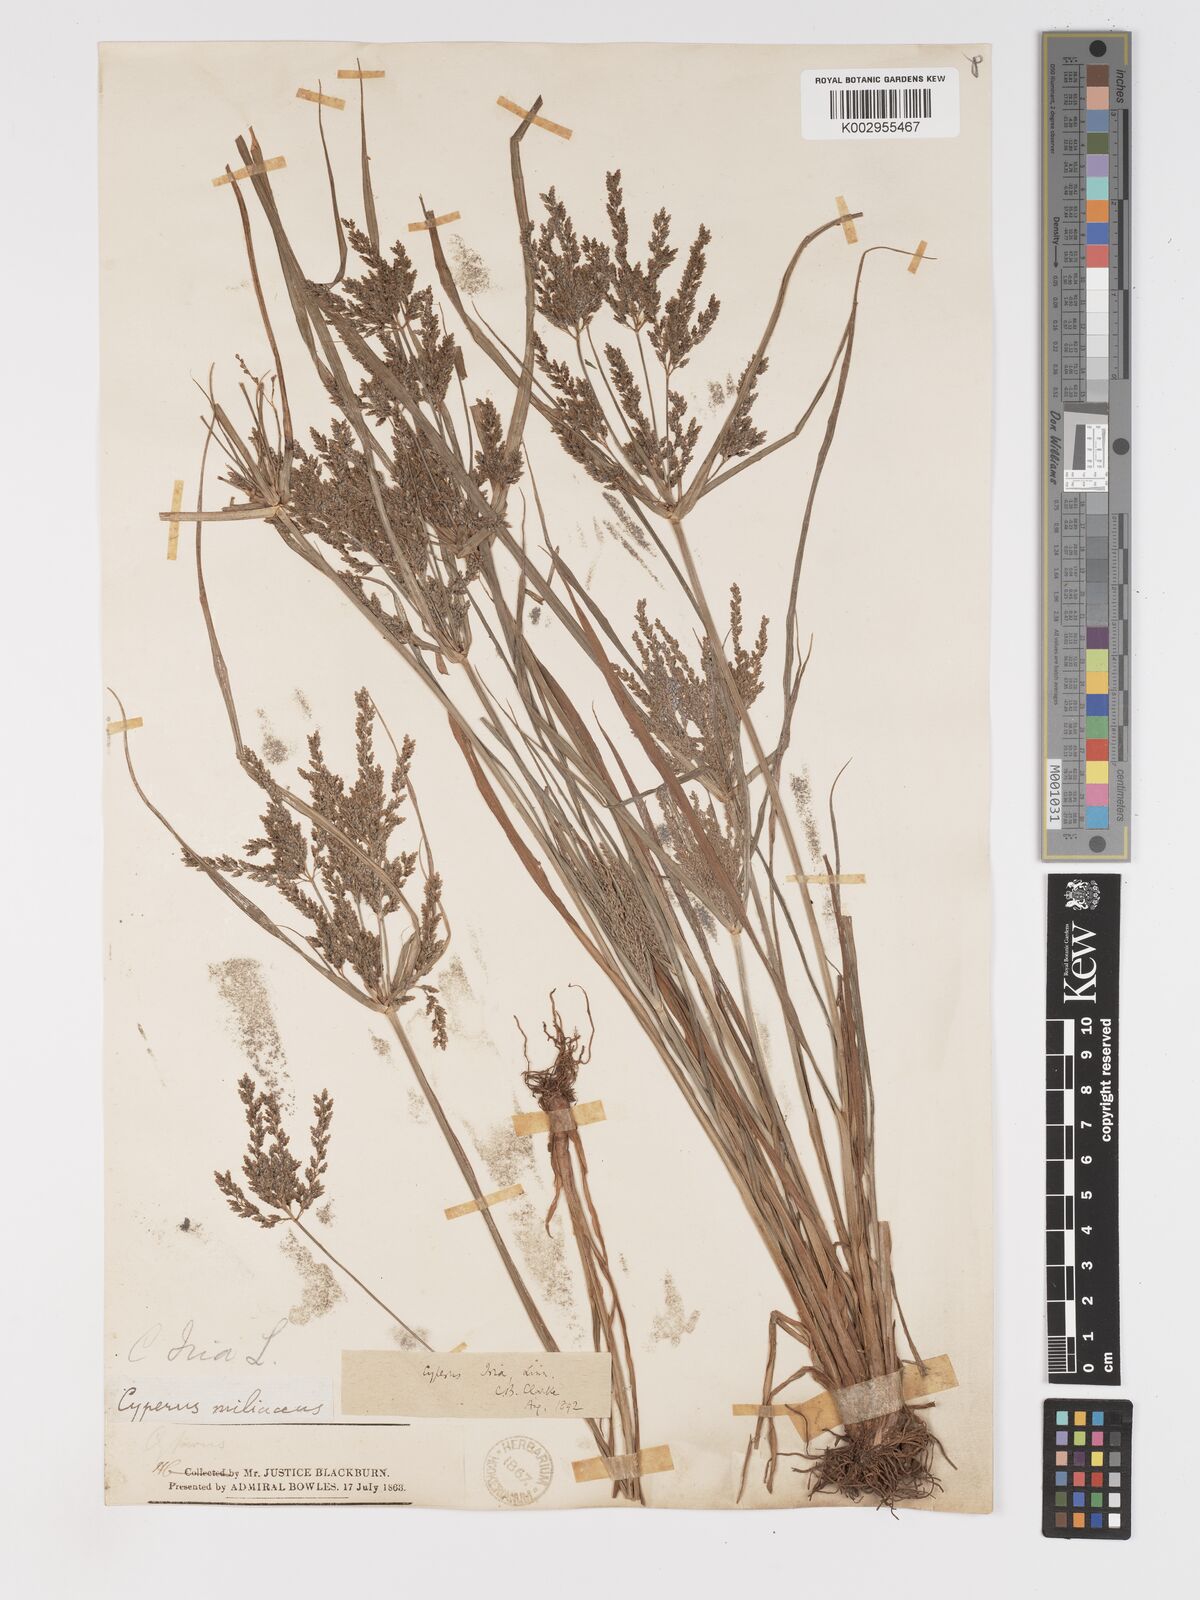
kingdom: Plantae
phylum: Tracheophyta
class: Liliopsida
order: Poales
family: Cyperaceae
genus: Cyperus
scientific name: Cyperus iria
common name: Ricefield flatsedge
